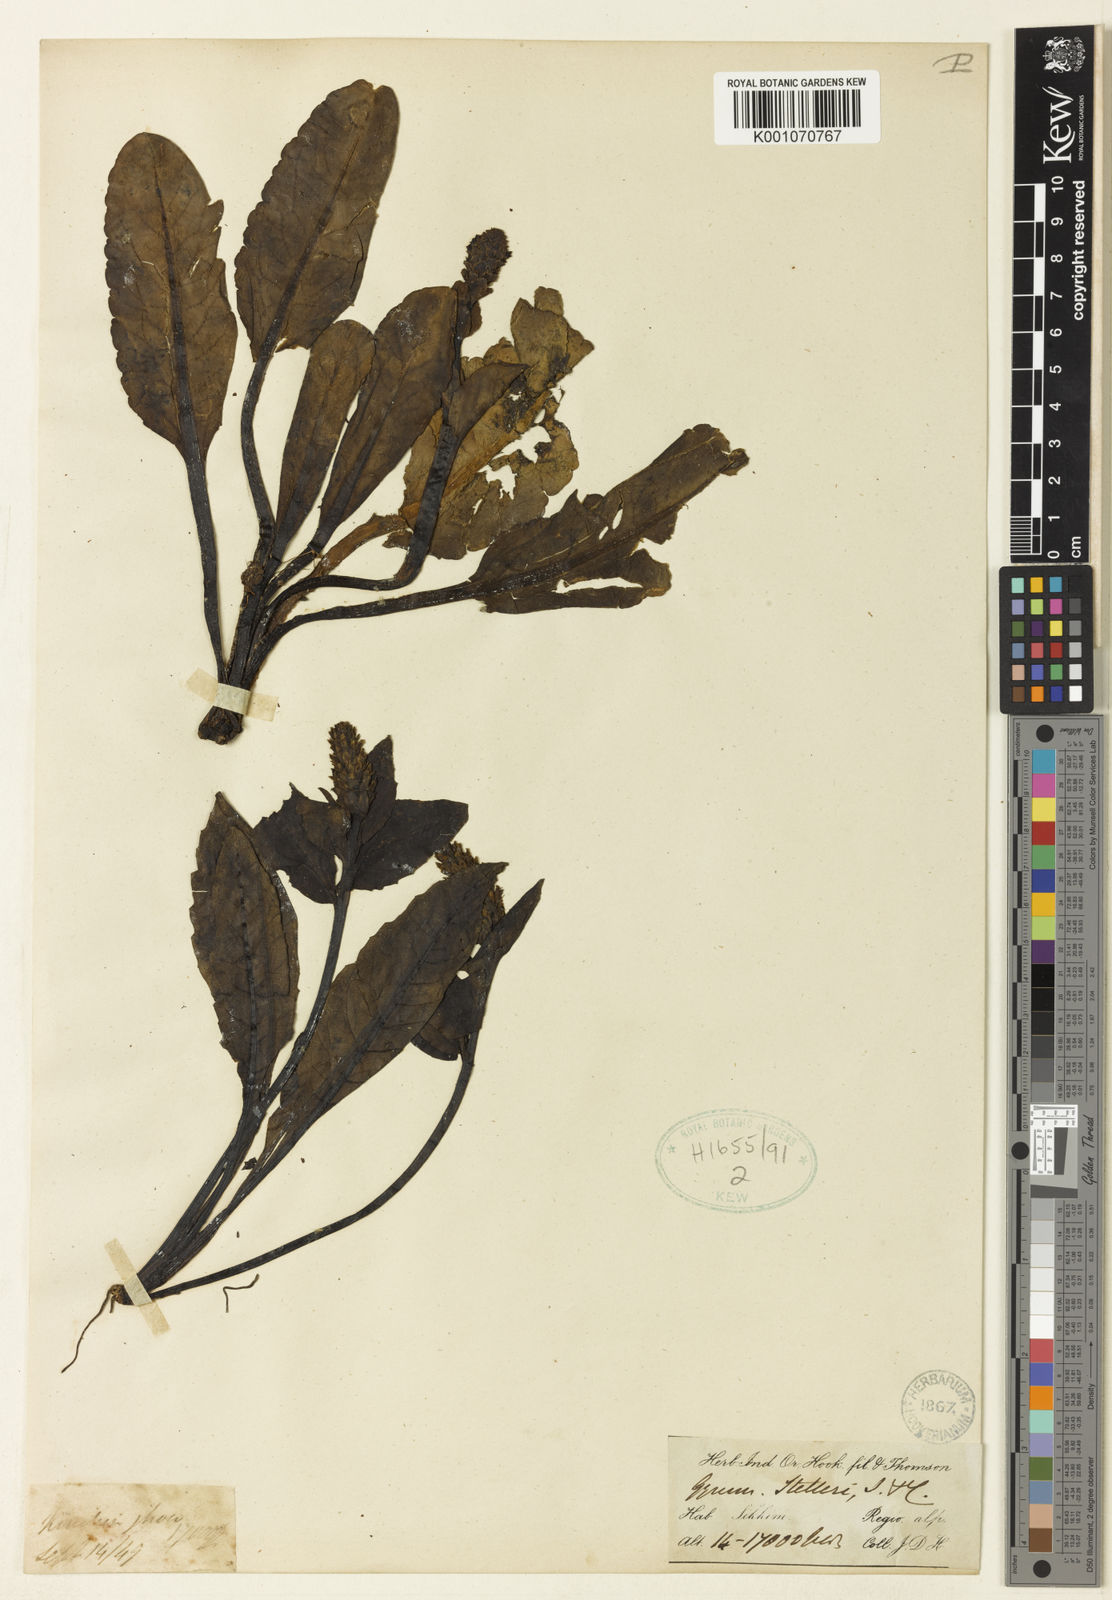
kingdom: Plantae
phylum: Tracheophyta
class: Magnoliopsida
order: Lamiales
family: Plantaginaceae
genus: Lagotis
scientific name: Lagotis kunawurensis
